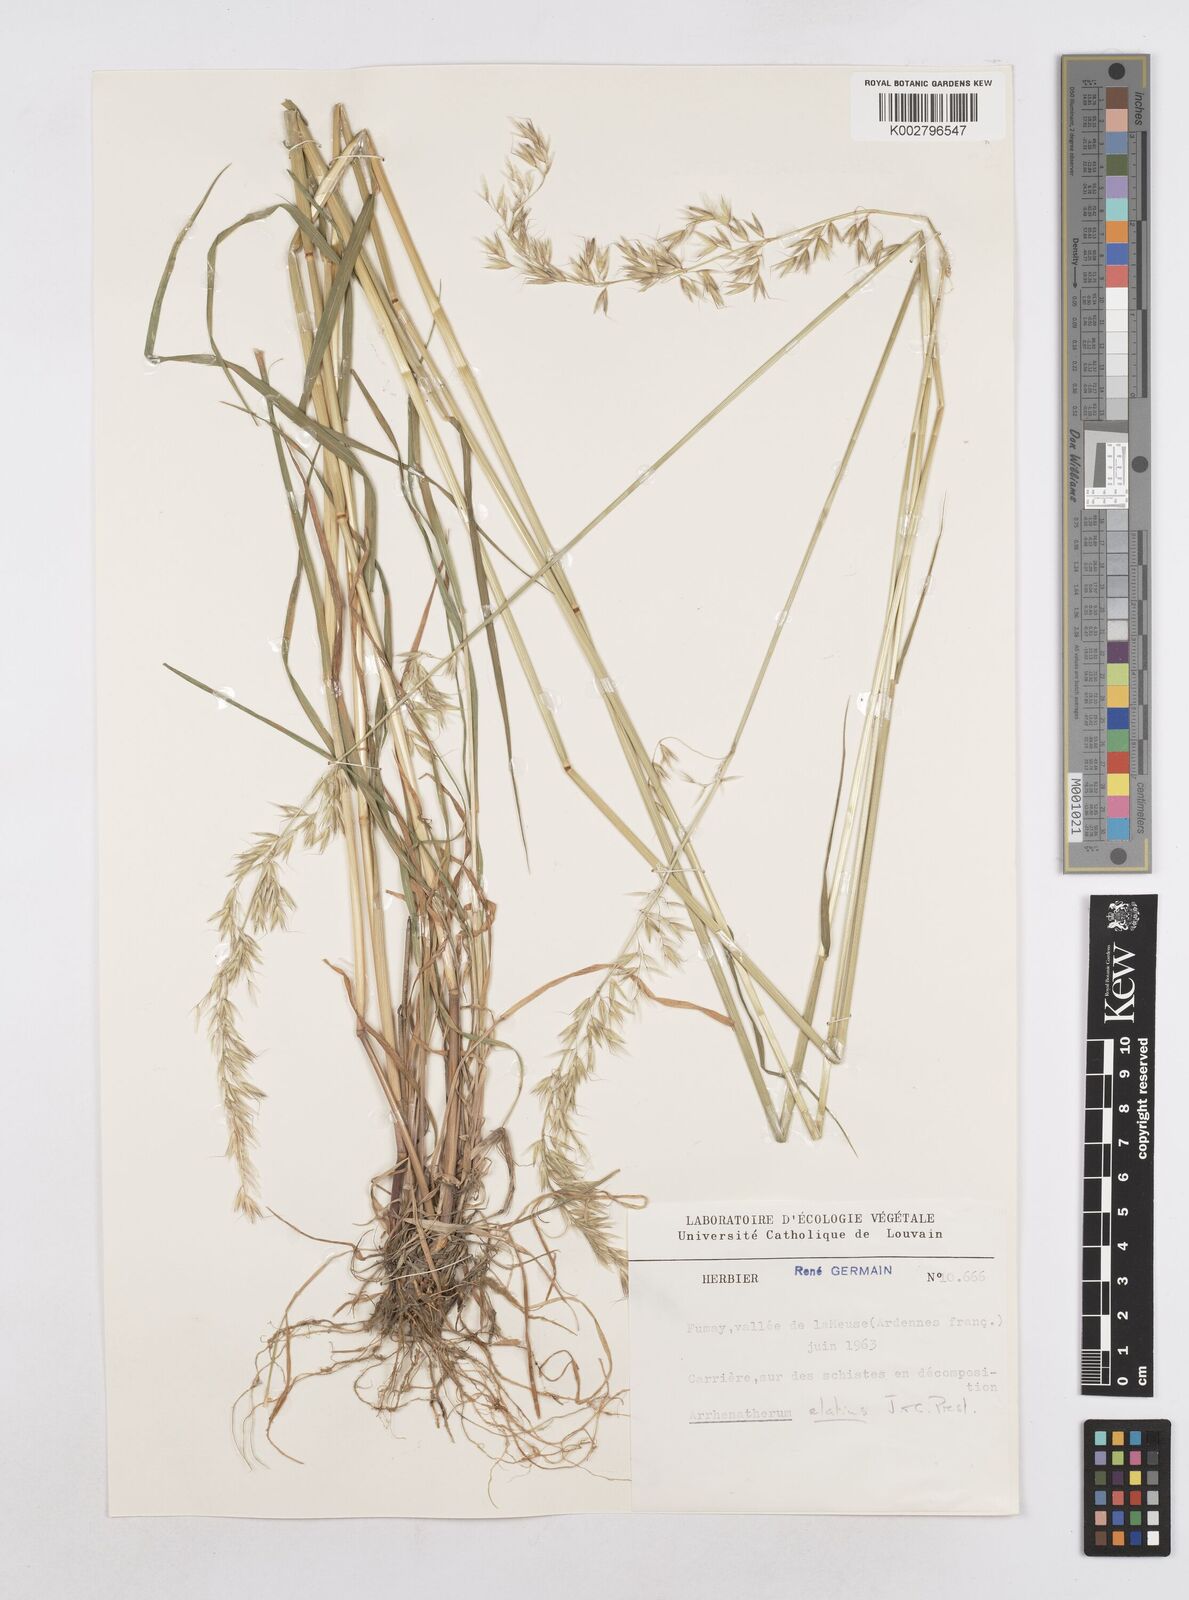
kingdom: Plantae
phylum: Tracheophyta
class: Liliopsida
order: Poales
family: Poaceae
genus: Arrhenatherum
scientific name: Arrhenatherum elatius
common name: Tall oatgrass
